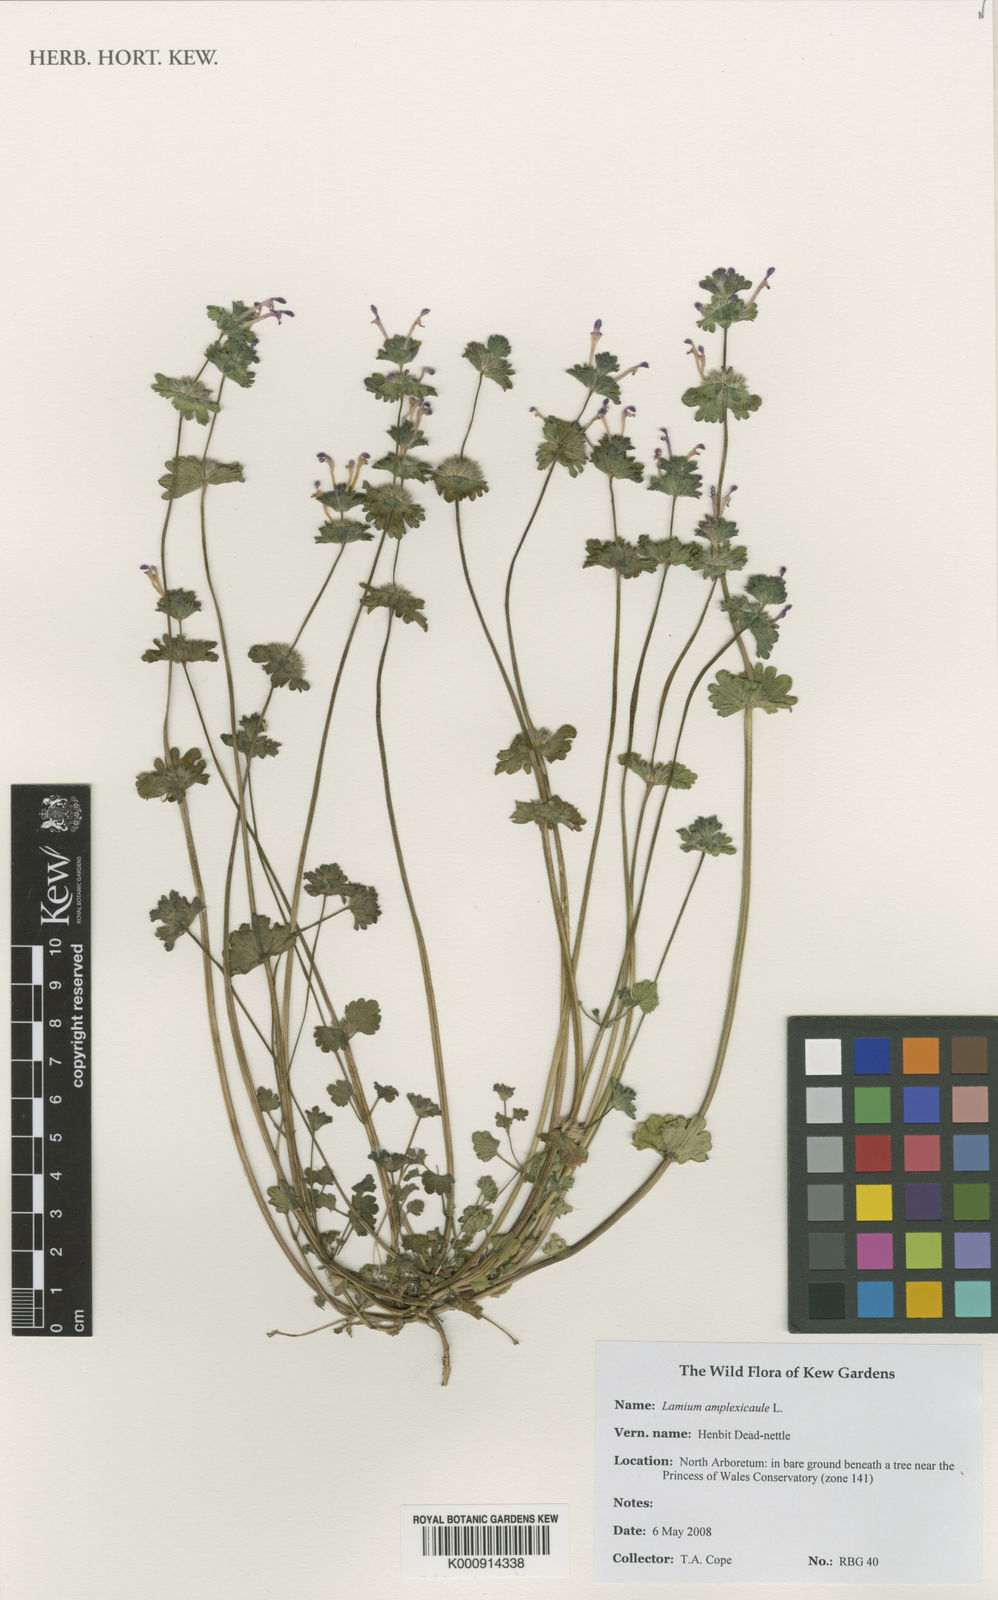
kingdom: Plantae
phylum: Tracheophyta
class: Magnoliopsida
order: Lamiales
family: Lamiaceae
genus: Lamium
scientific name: Lamium amplexicaule
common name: Henbit dead-nettle
